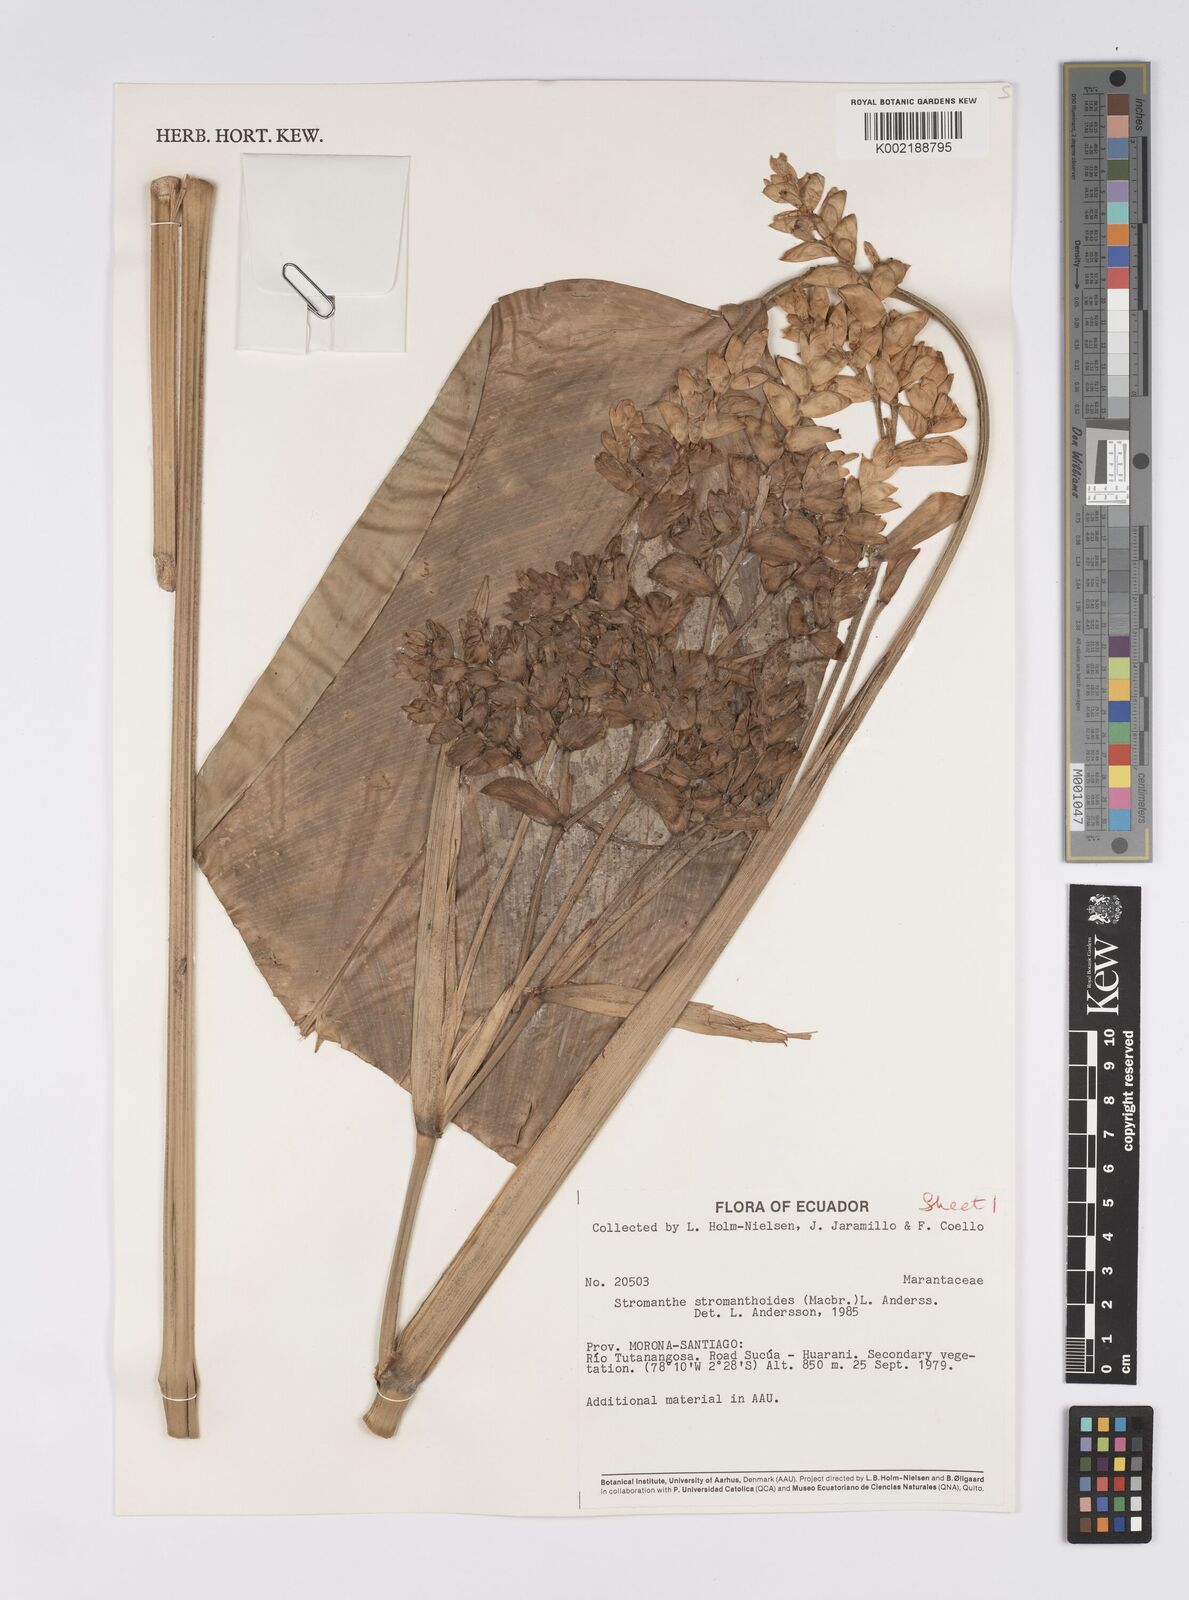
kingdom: Plantae
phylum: Tracheophyta
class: Liliopsida
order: Zingiberales
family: Marantaceae
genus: Stromanthe
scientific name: Stromanthe stromanthoides
